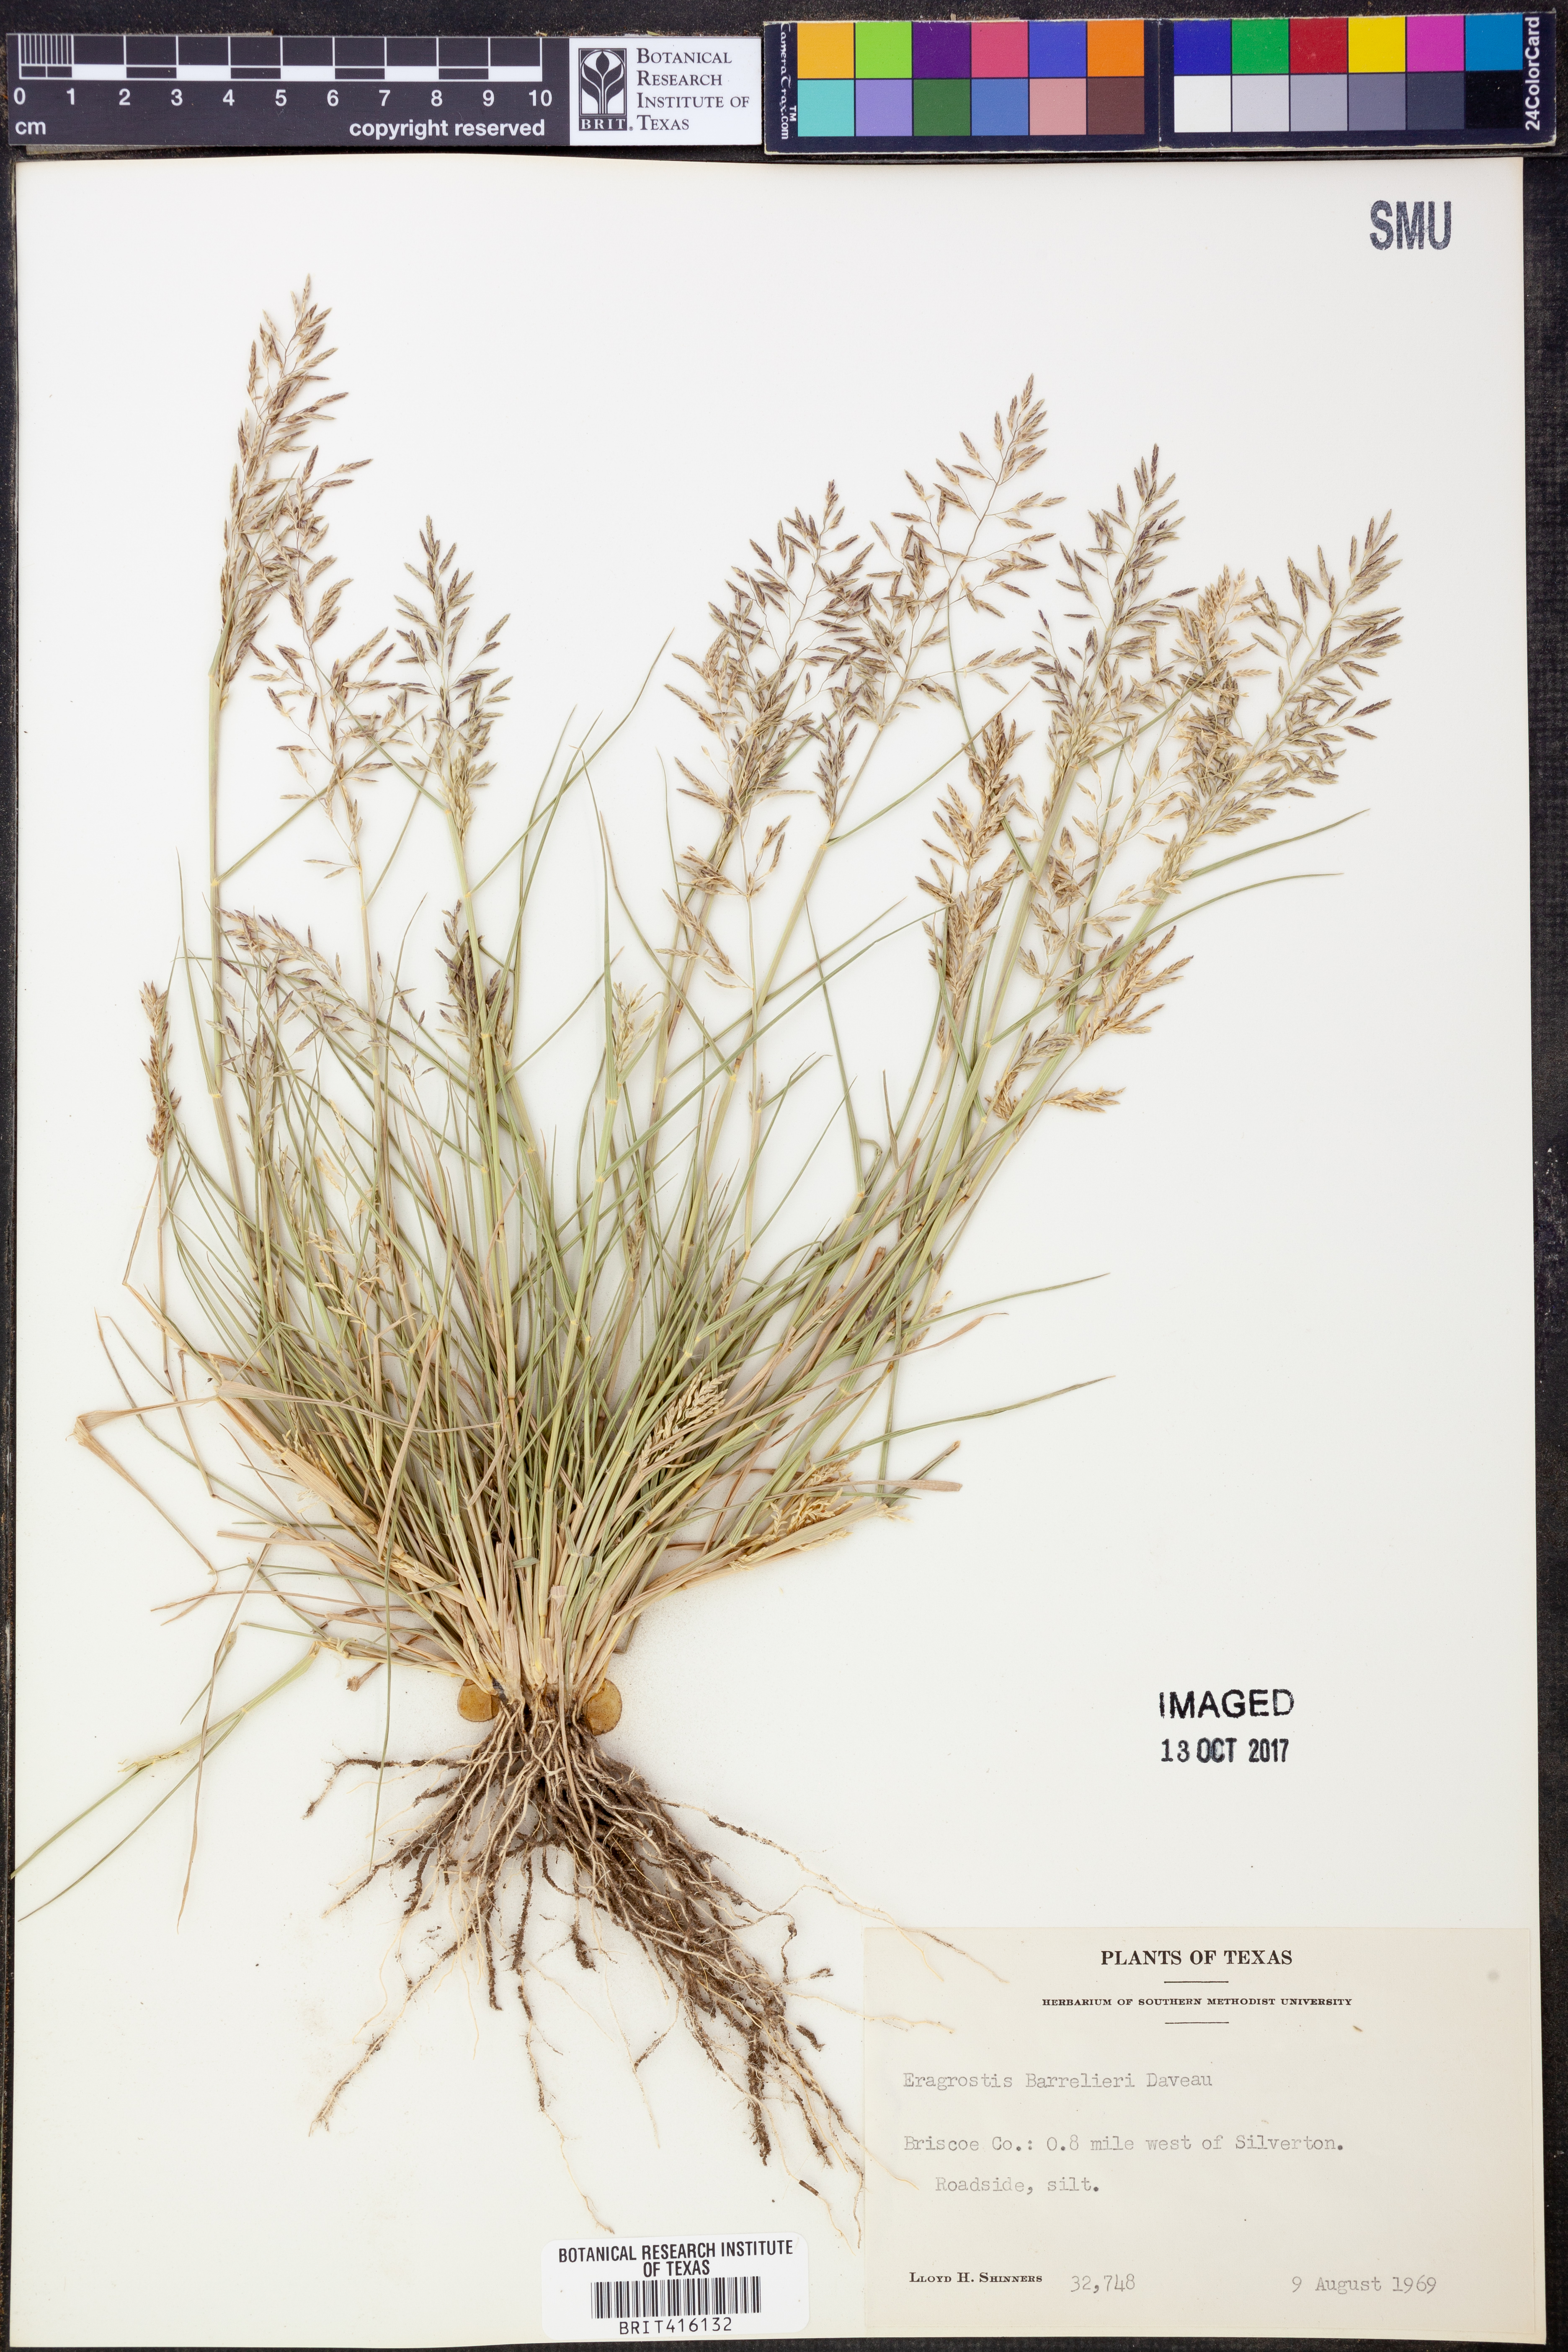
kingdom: Plantae
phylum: Tracheophyta
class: Liliopsida
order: Poales
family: Poaceae
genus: Eragrostis
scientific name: Eragrostis barrelieri
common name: Mediterranean lovegrass
